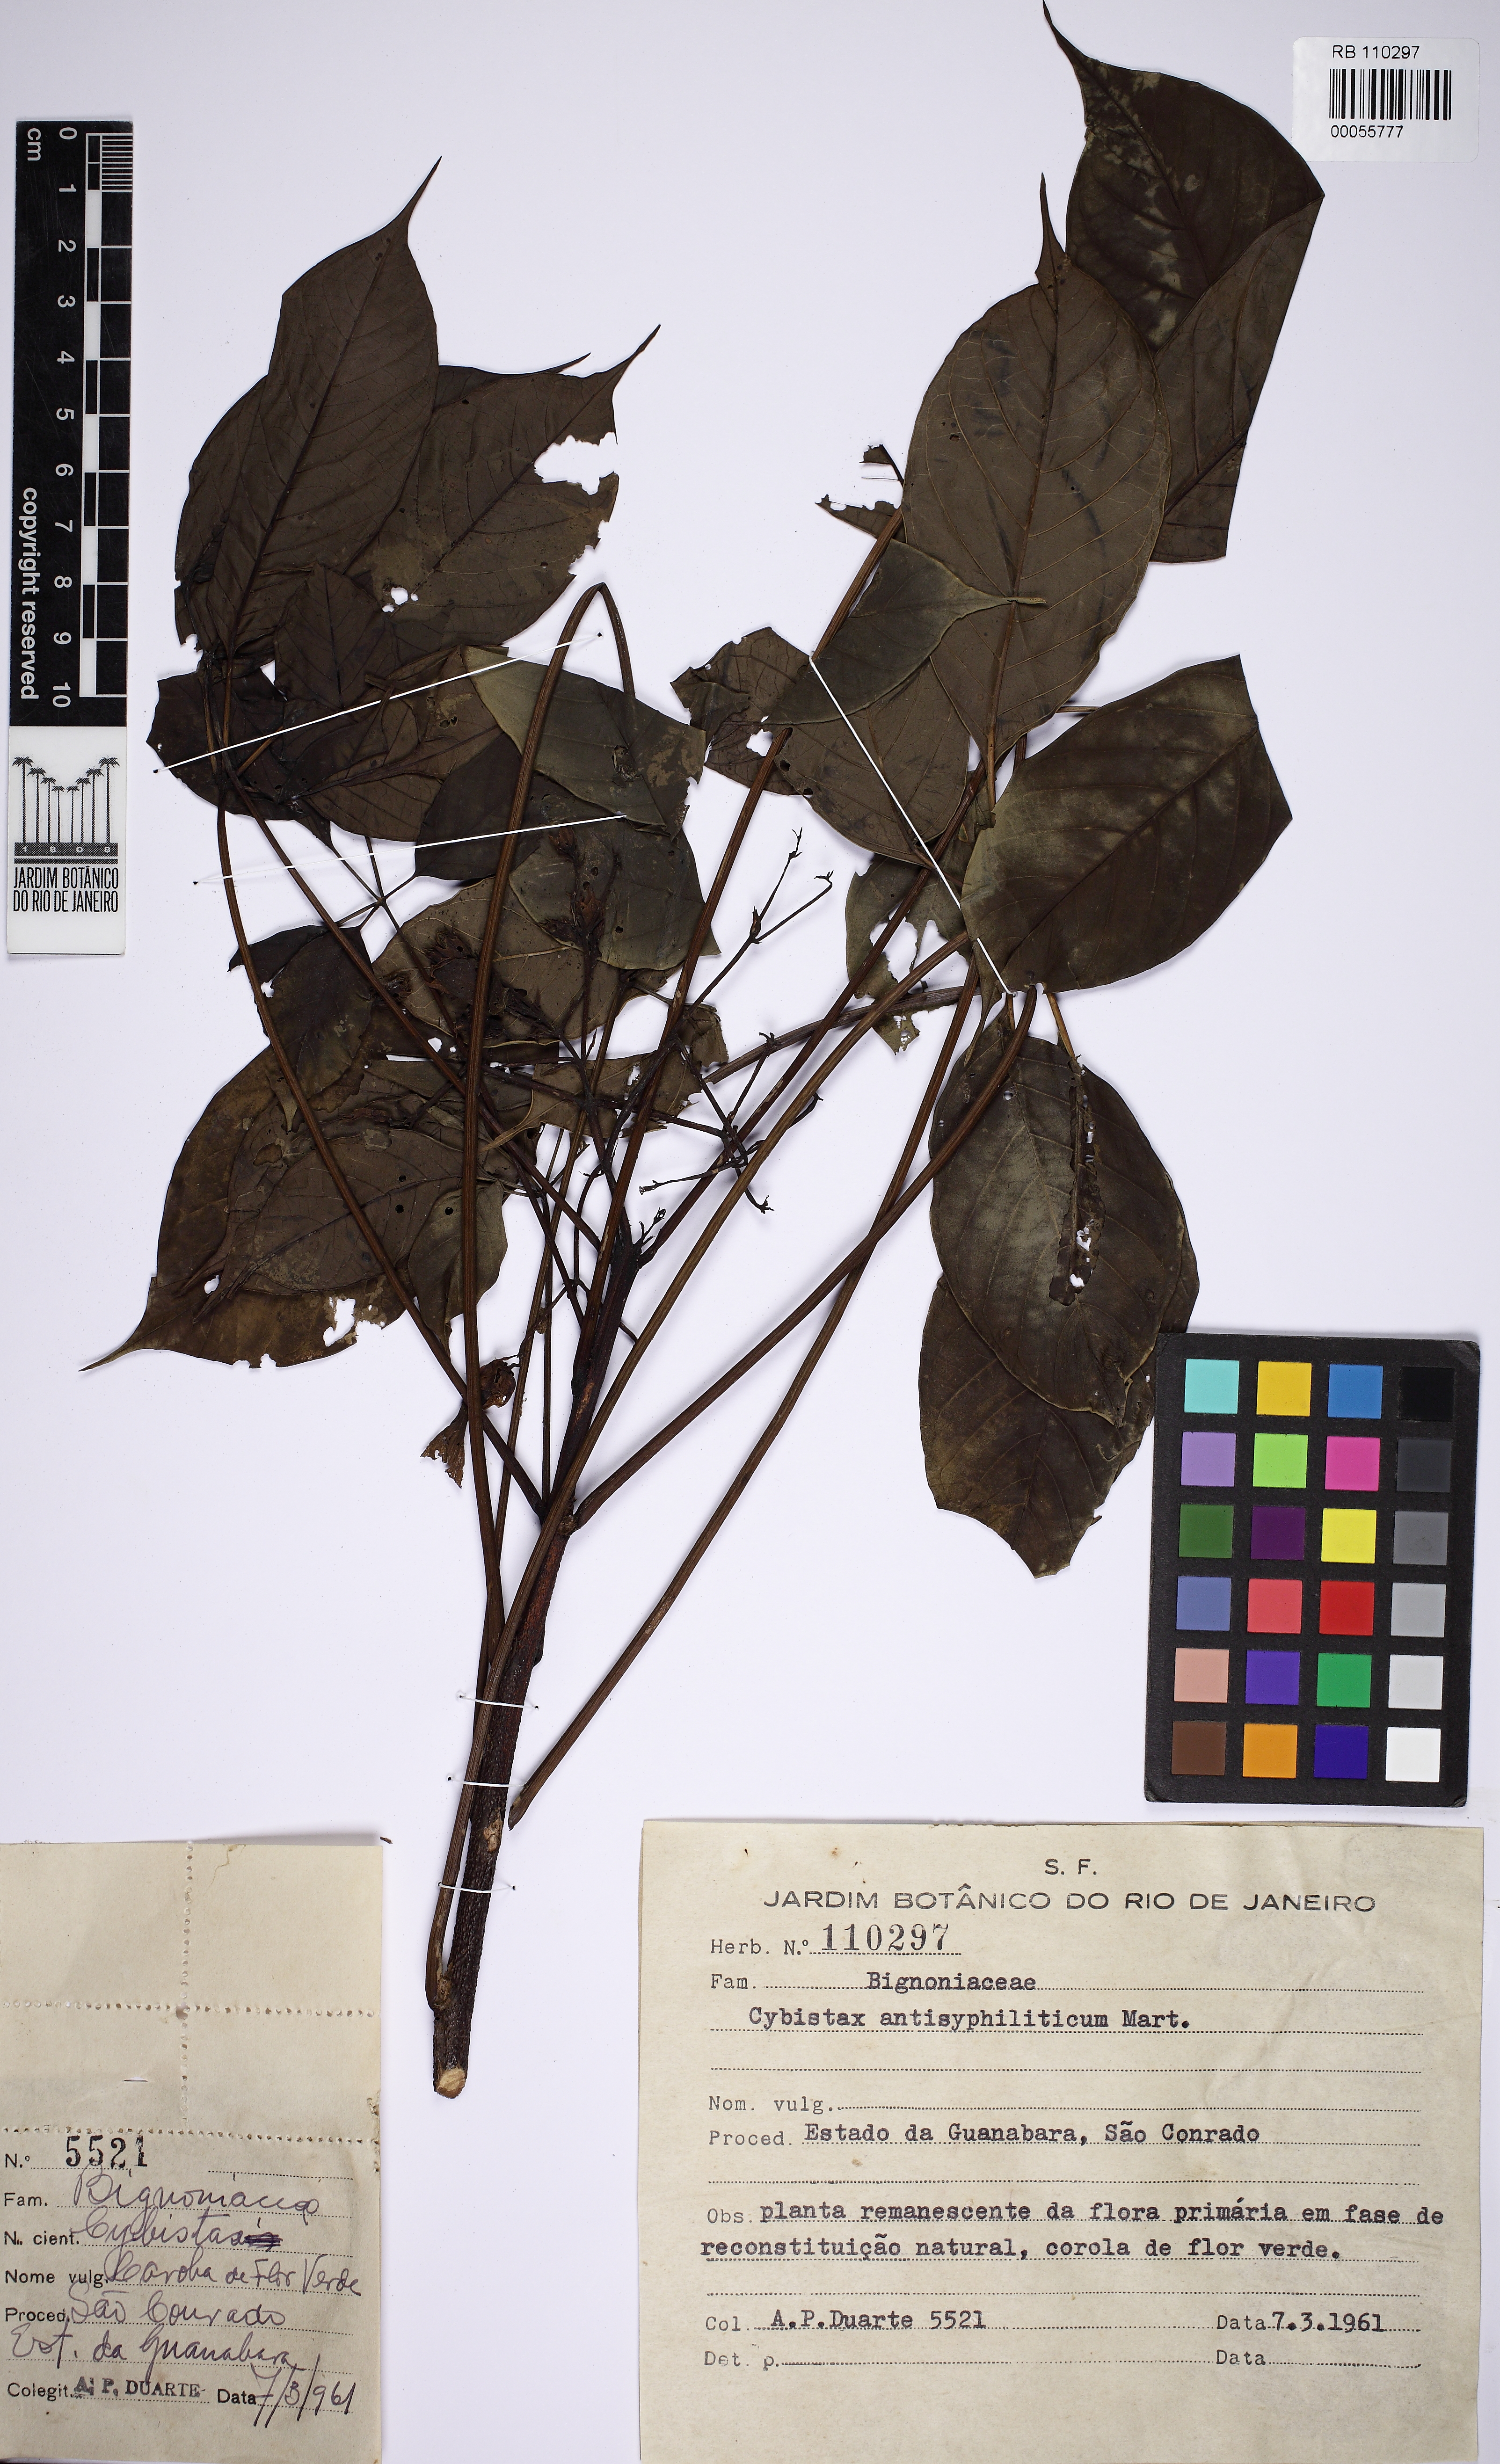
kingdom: Plantae
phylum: Tracheophyta
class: Magnoliopsida
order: Lamiales
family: Bignoniaceae
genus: Cybistax
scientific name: Cybistax antisyphilitica
